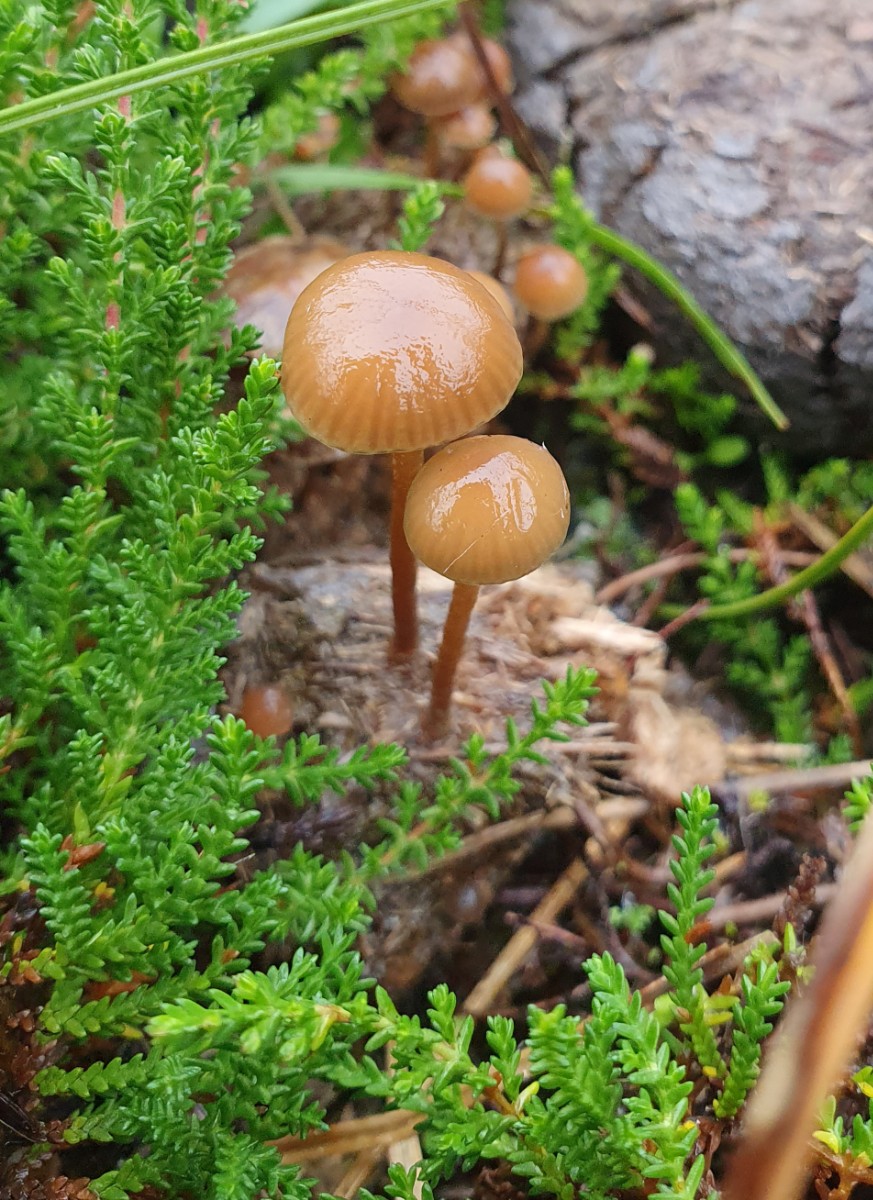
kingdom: Fungi
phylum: Basidiomycota
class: Agaricomycetes
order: Agaricales
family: Strophariaceae
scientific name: Strophariaceae
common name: bredbladfamilien
